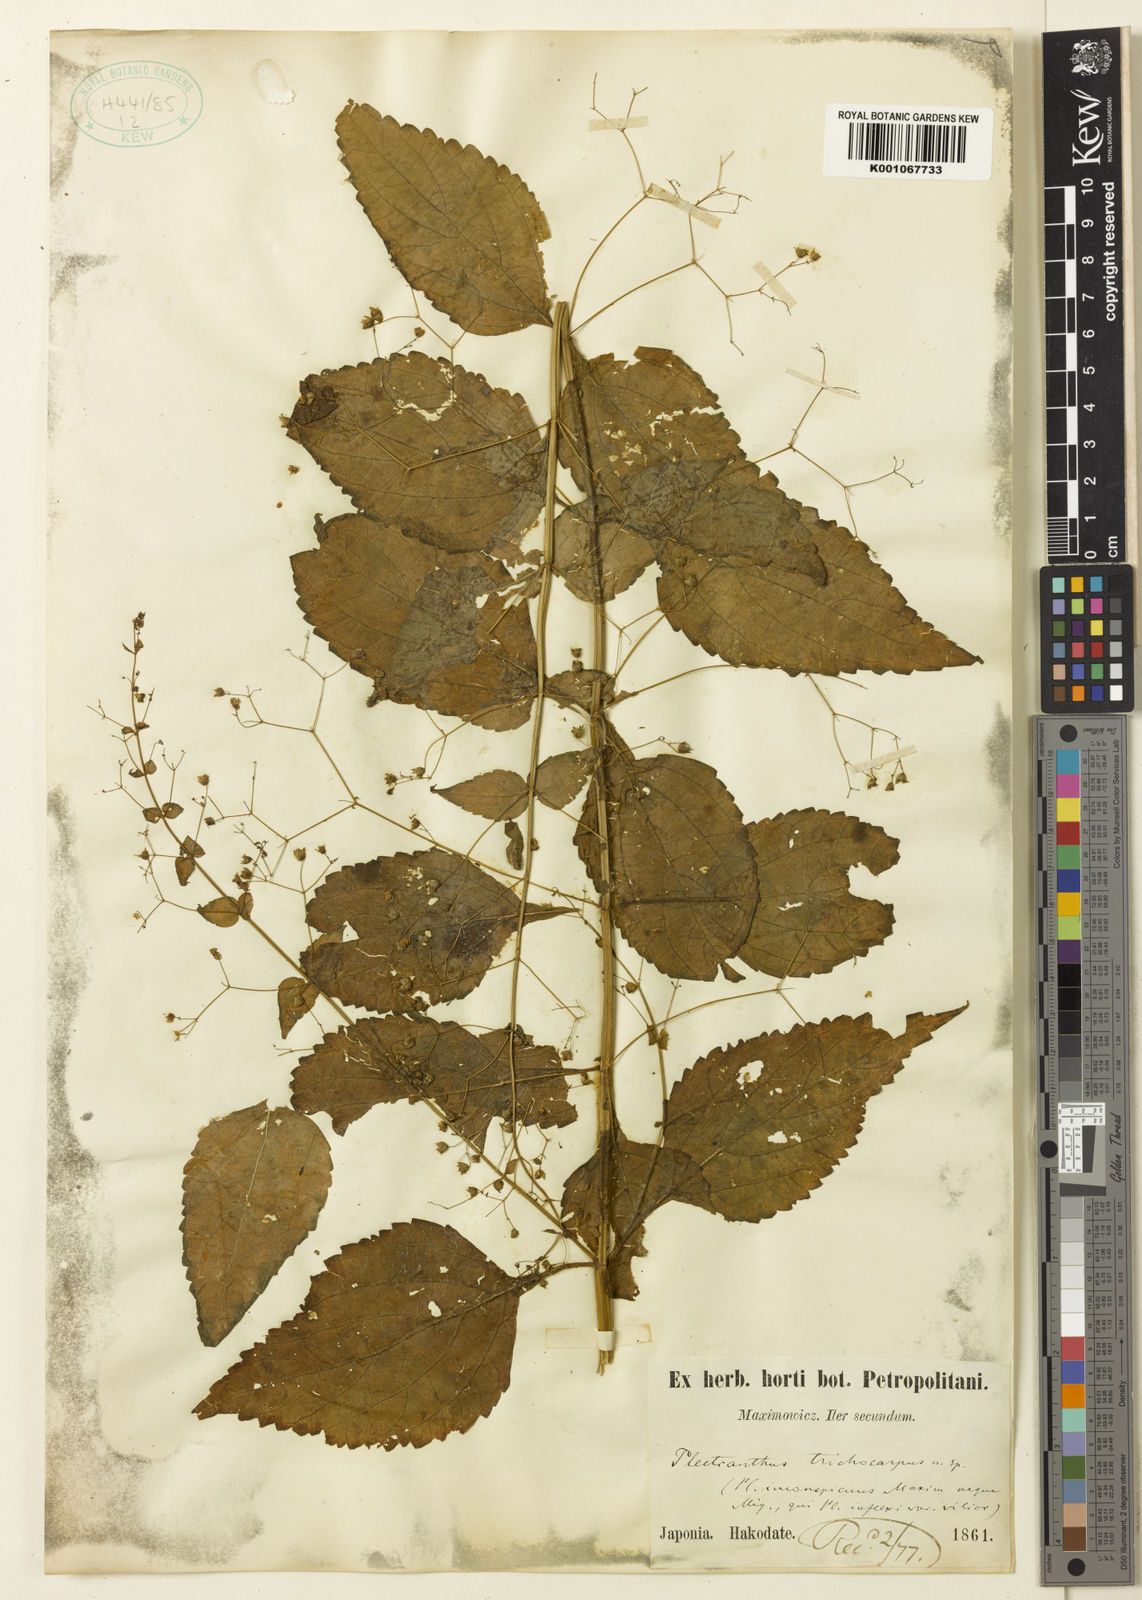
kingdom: Plantae
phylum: Tracheophyta
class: Magnoliopsida
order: Lamiales
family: Lamiaceae
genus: Isodon
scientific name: Isodon
